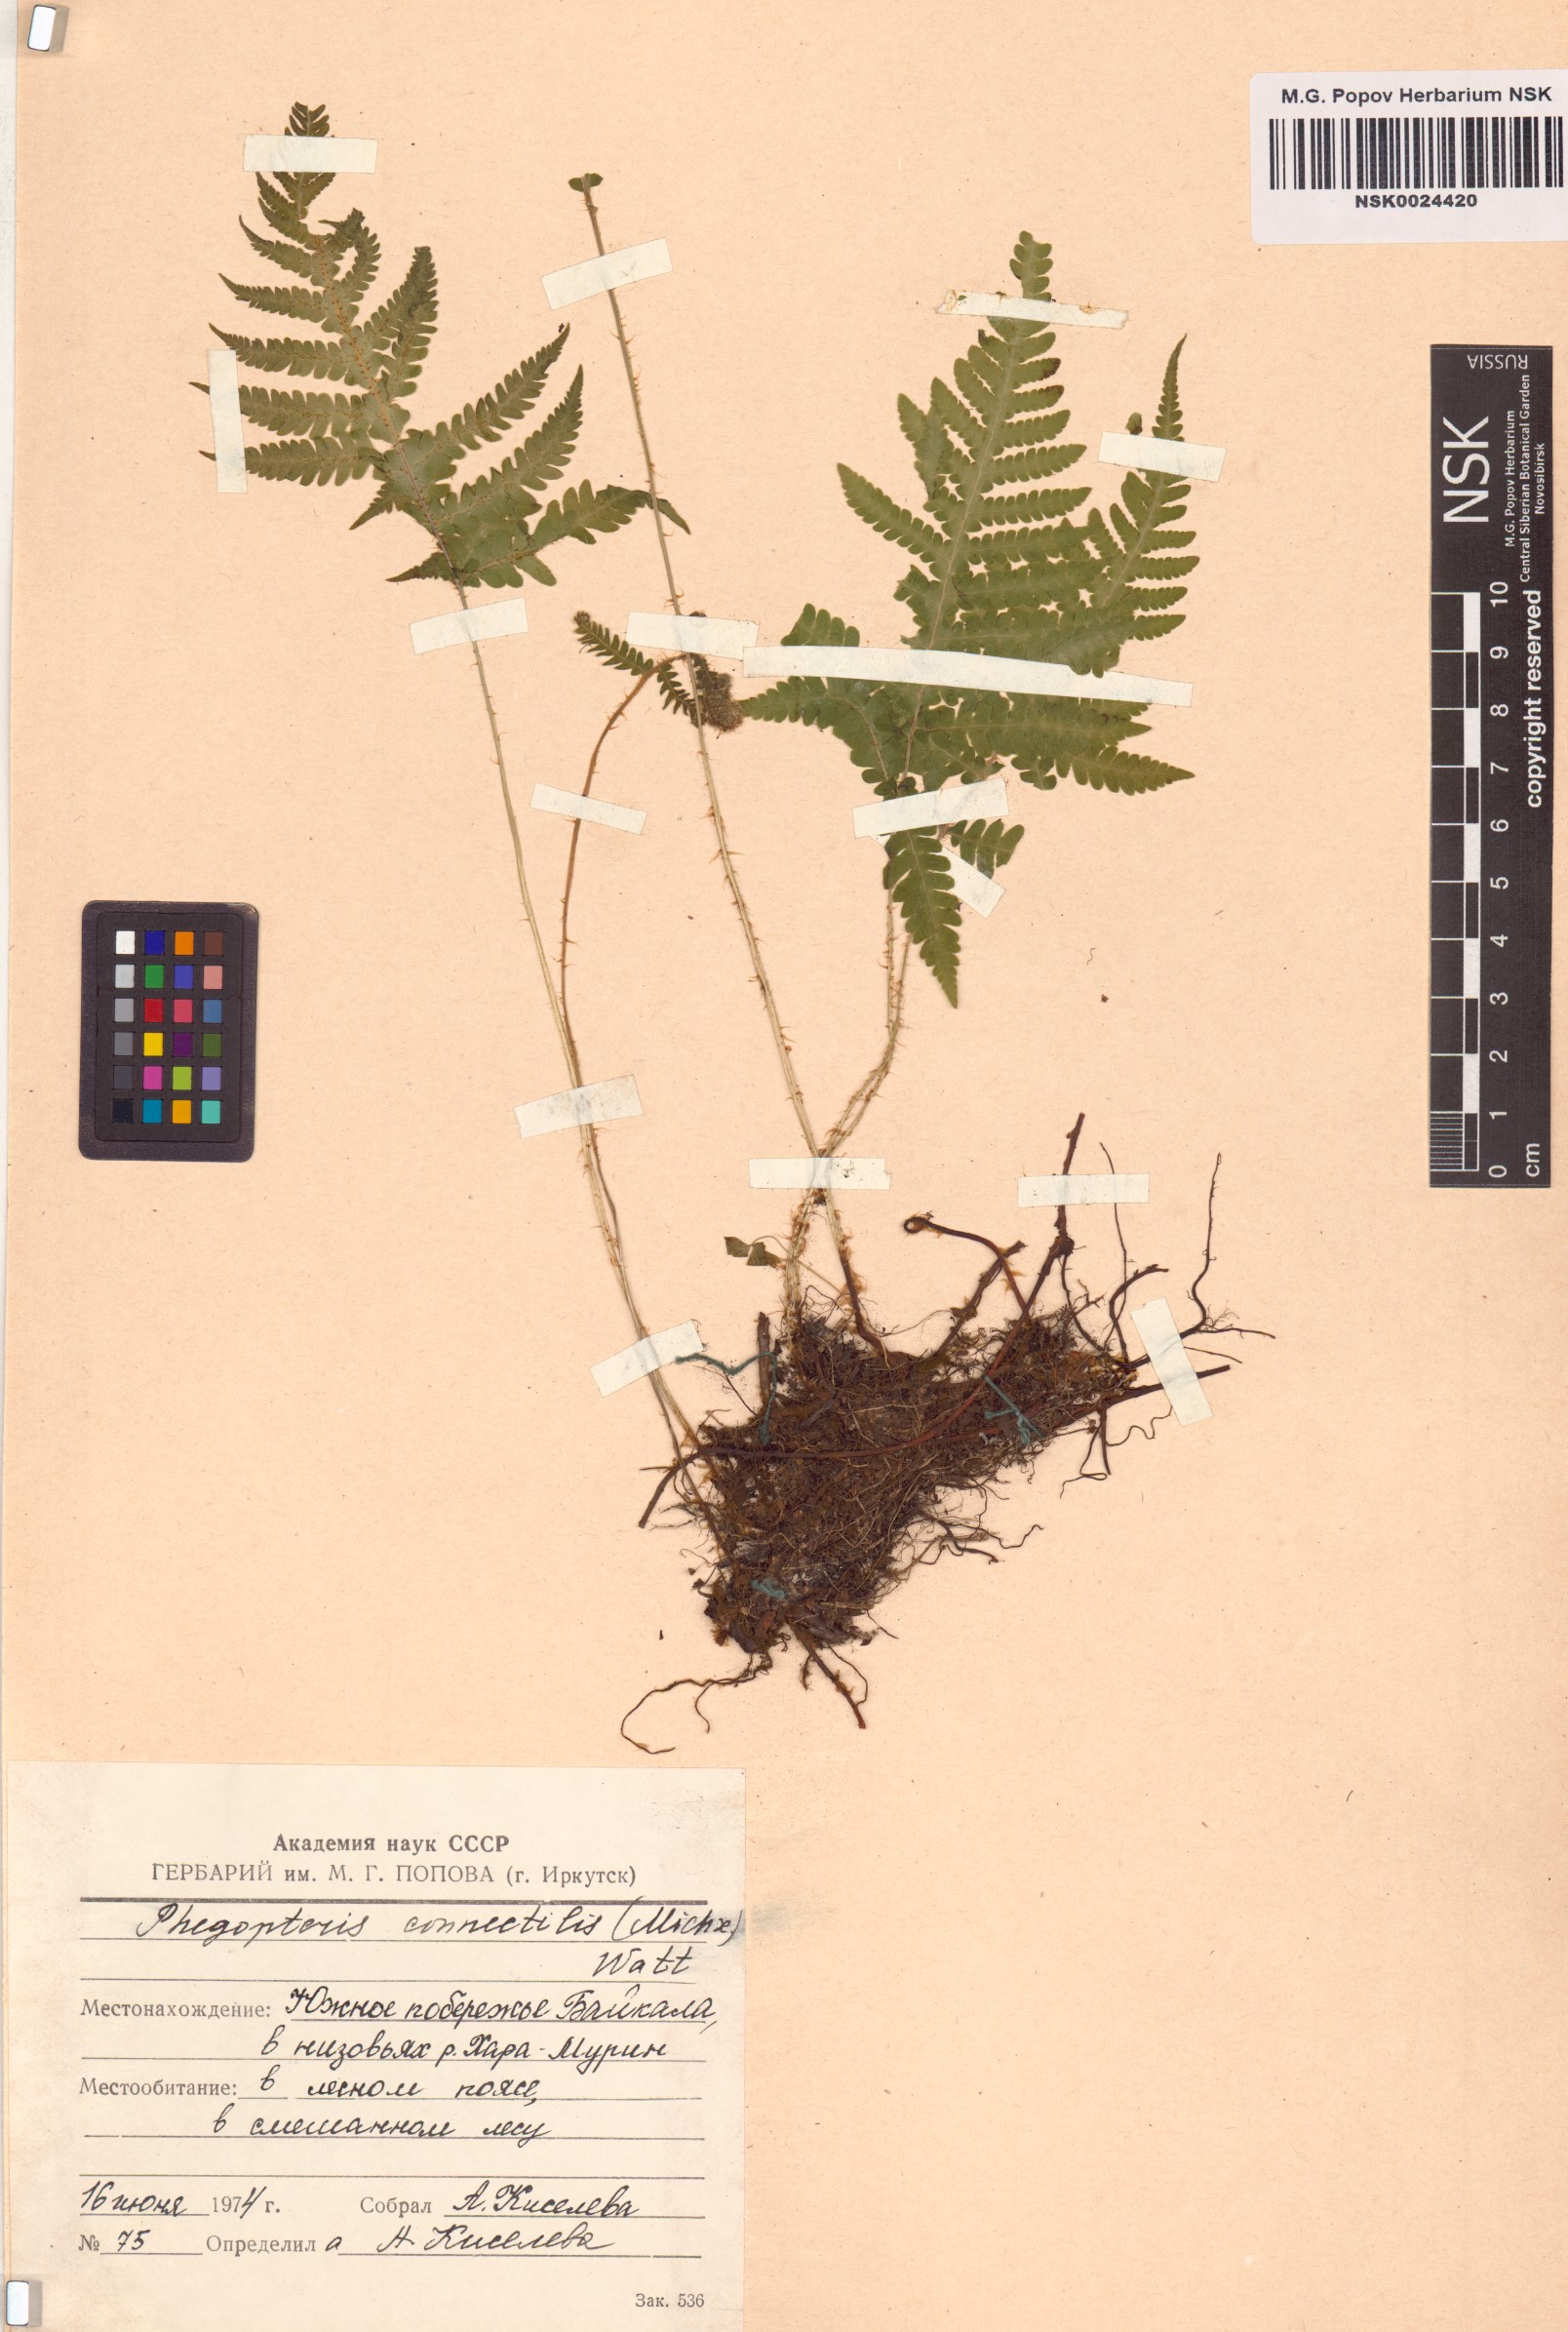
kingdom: Plantae
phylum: Tracheophyta
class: Polypodiopsida
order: Polypodiales
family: Thelypteridaceae
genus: Phegopteris
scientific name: Phegopteris connectilis
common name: Beech fern
